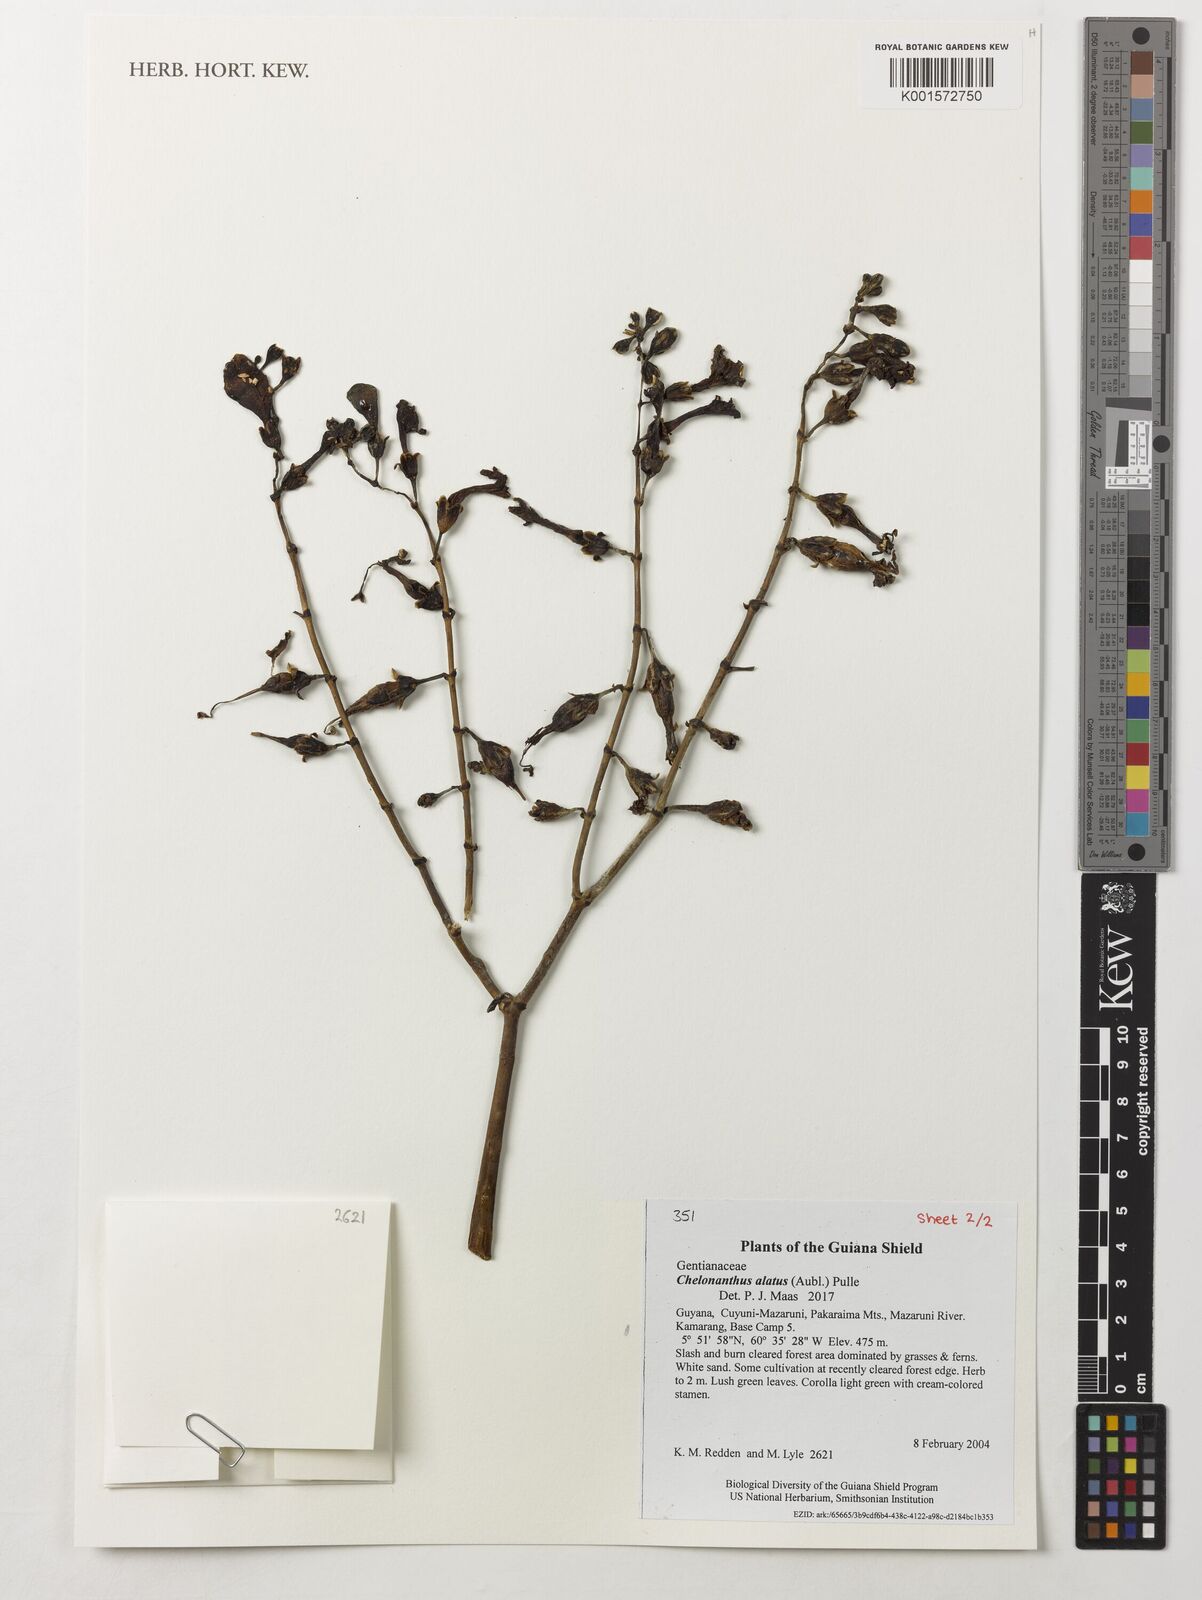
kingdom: Plantae
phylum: Tracheophyta
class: Magnoliopsida
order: Gentianales
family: Gentianaceae
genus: Chelonanthus
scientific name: Chelonanthus alatus
